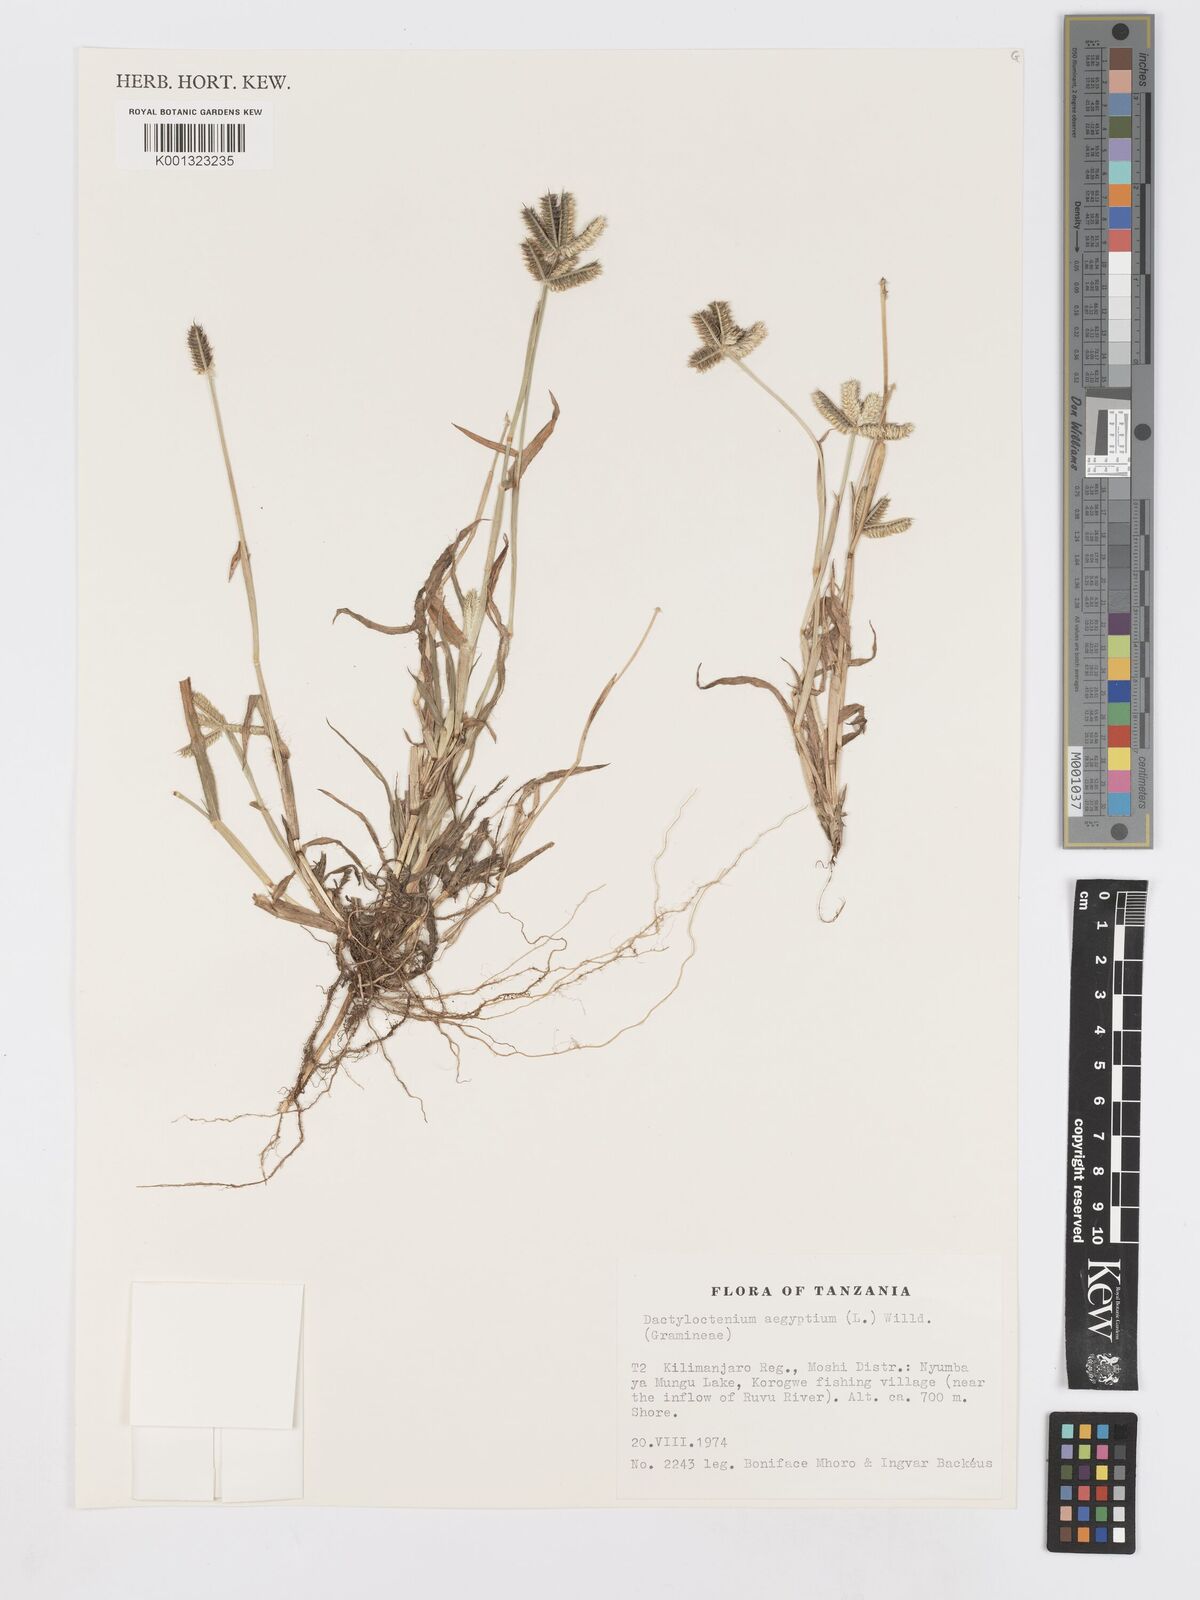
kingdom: Plantae
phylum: Tracheophyta
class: Liliopsida
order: Poales
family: Poaceae
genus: Dactyloctenium
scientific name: Dactyloctenium aegyptium
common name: Egyptian grass
